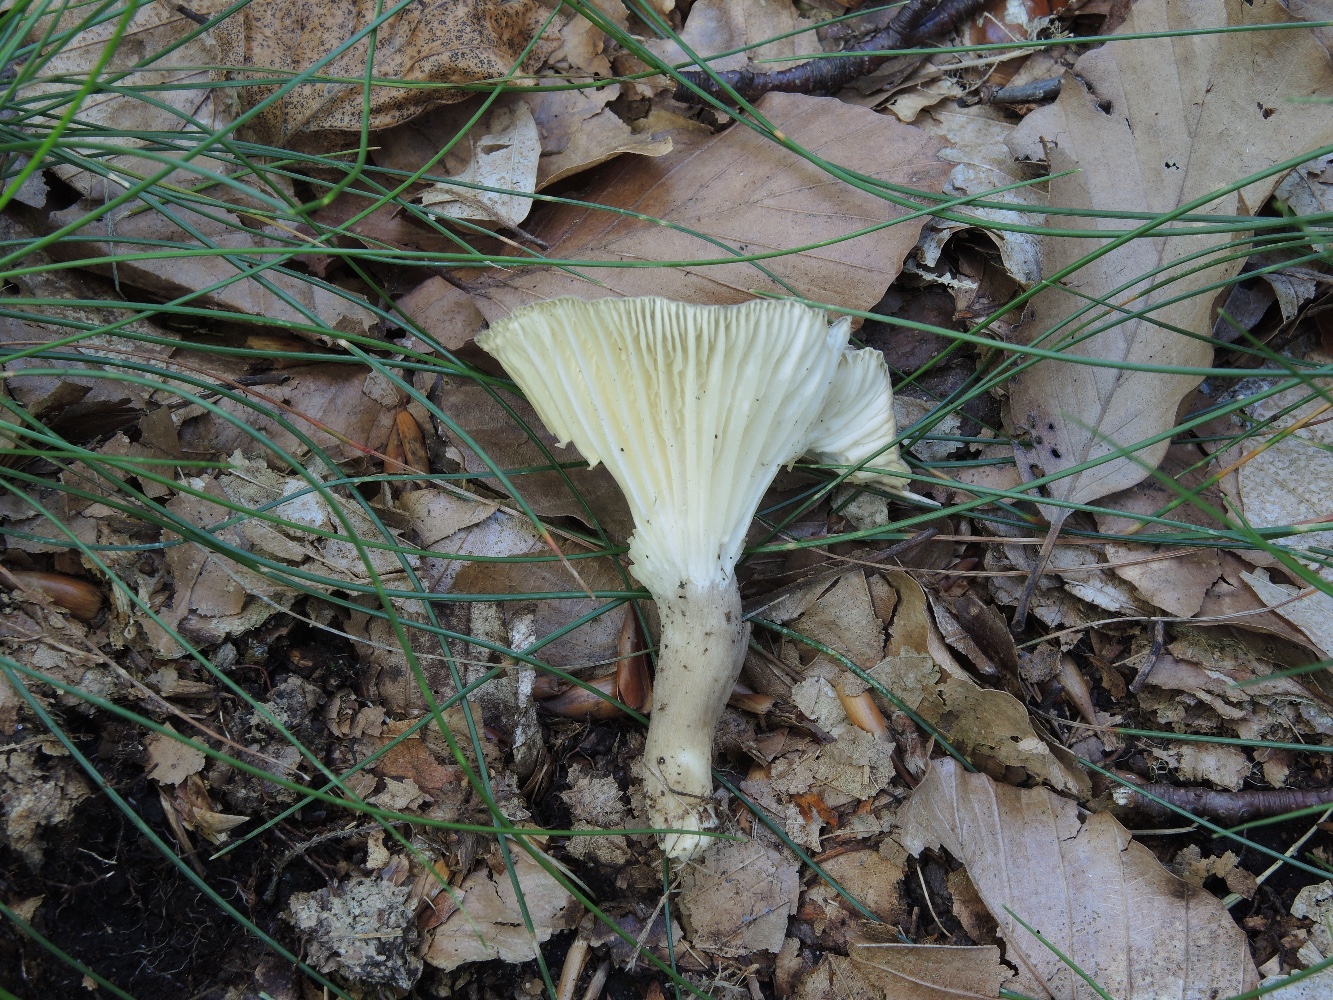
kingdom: Fungi
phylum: Basidiomycota
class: Agaricomycetes
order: Agaricales
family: Hygrophoraceae
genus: Ampulloclitocybe
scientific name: Ampulloclitocybe clavipes
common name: køllefod
